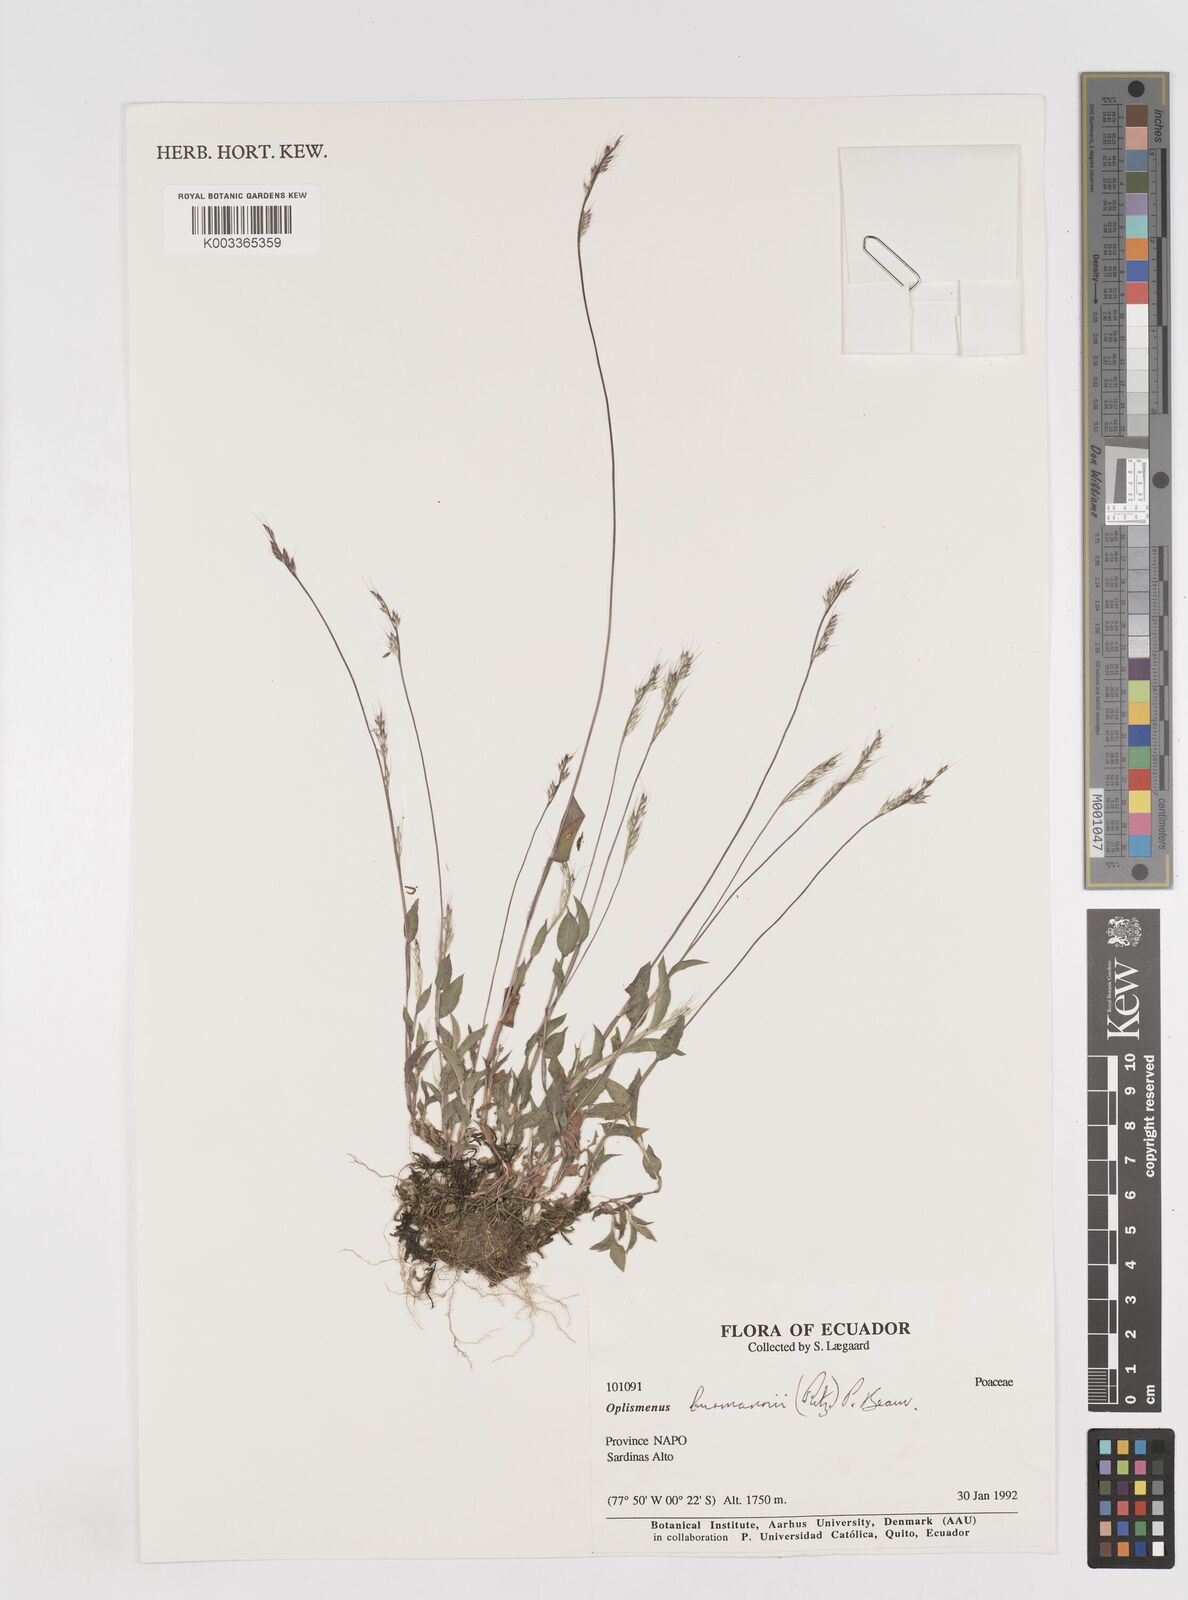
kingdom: Plantae
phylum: Tracheophyta
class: Liliopsida
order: Poales
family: Poaceae
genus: Oplismenus
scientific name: Oplismenus burmanni
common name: Burmann's basketgrass
